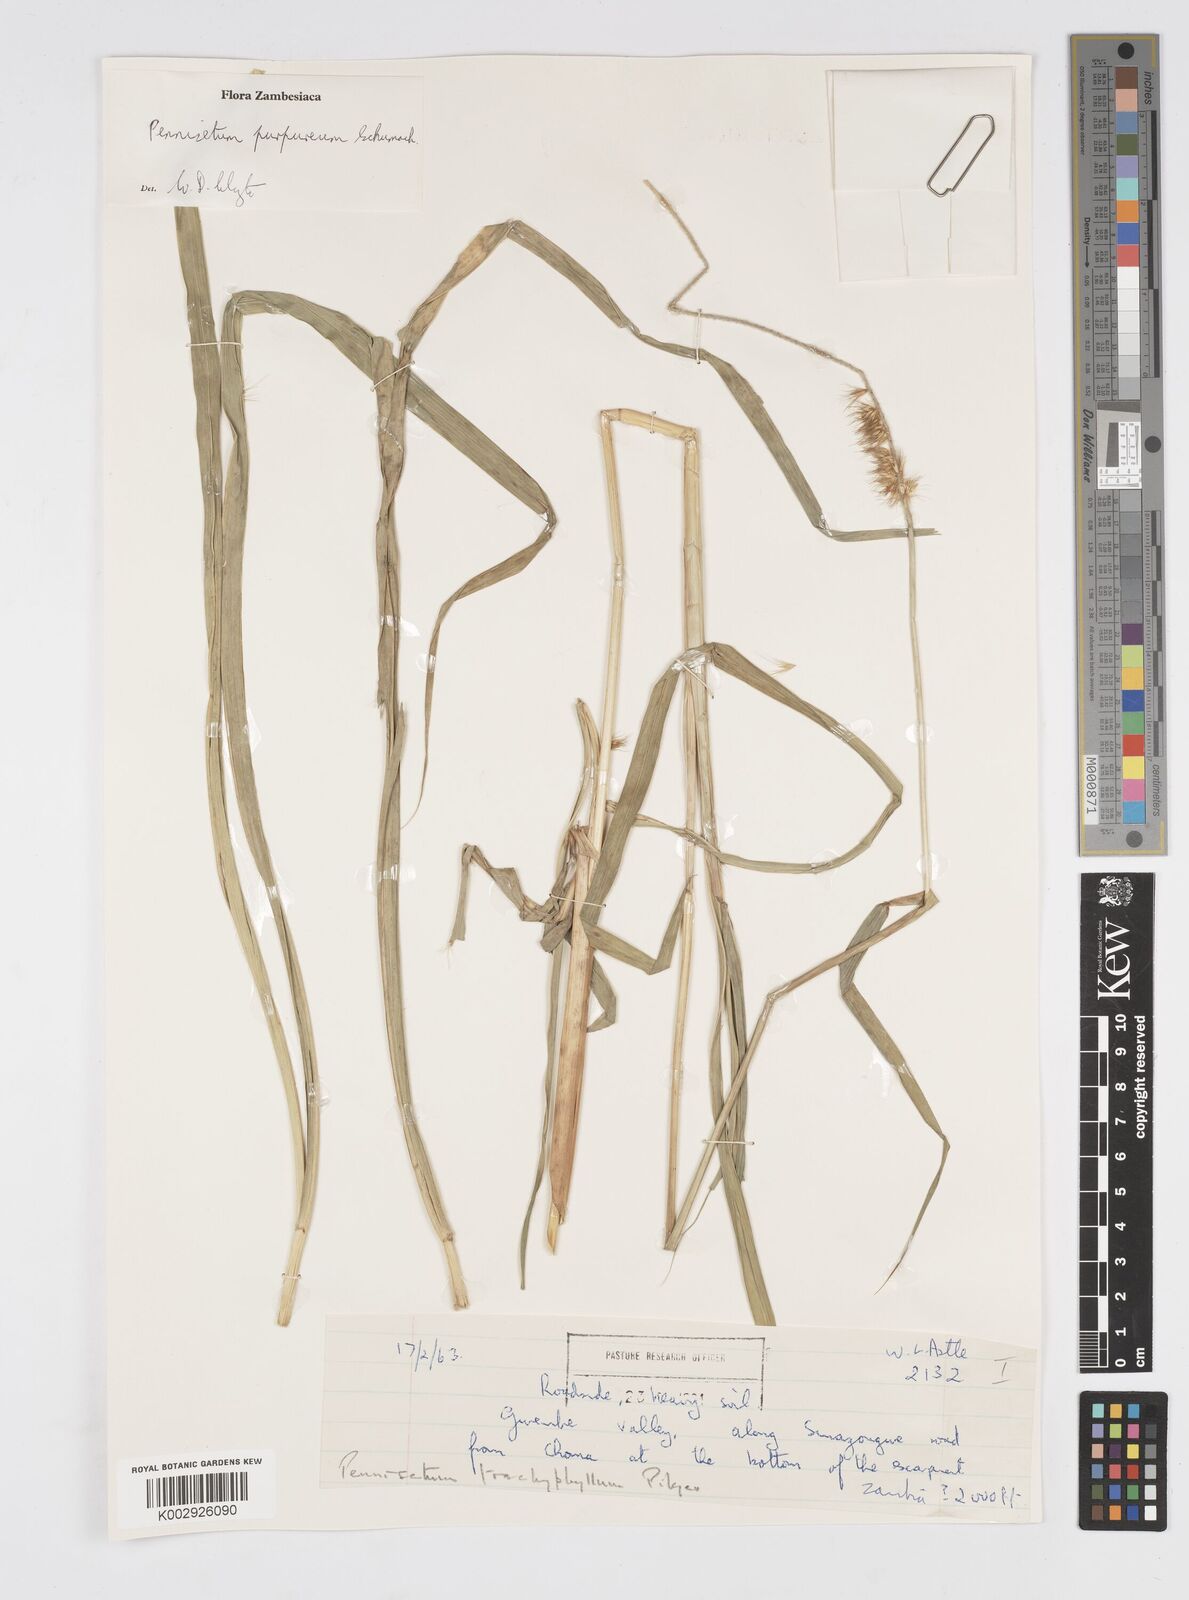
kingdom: Plantae
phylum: Tracheophyta
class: Liliopsida
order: Poales
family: Poaceae
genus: Cenchrus
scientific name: Cenchrus purpureus
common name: Elephant grass
